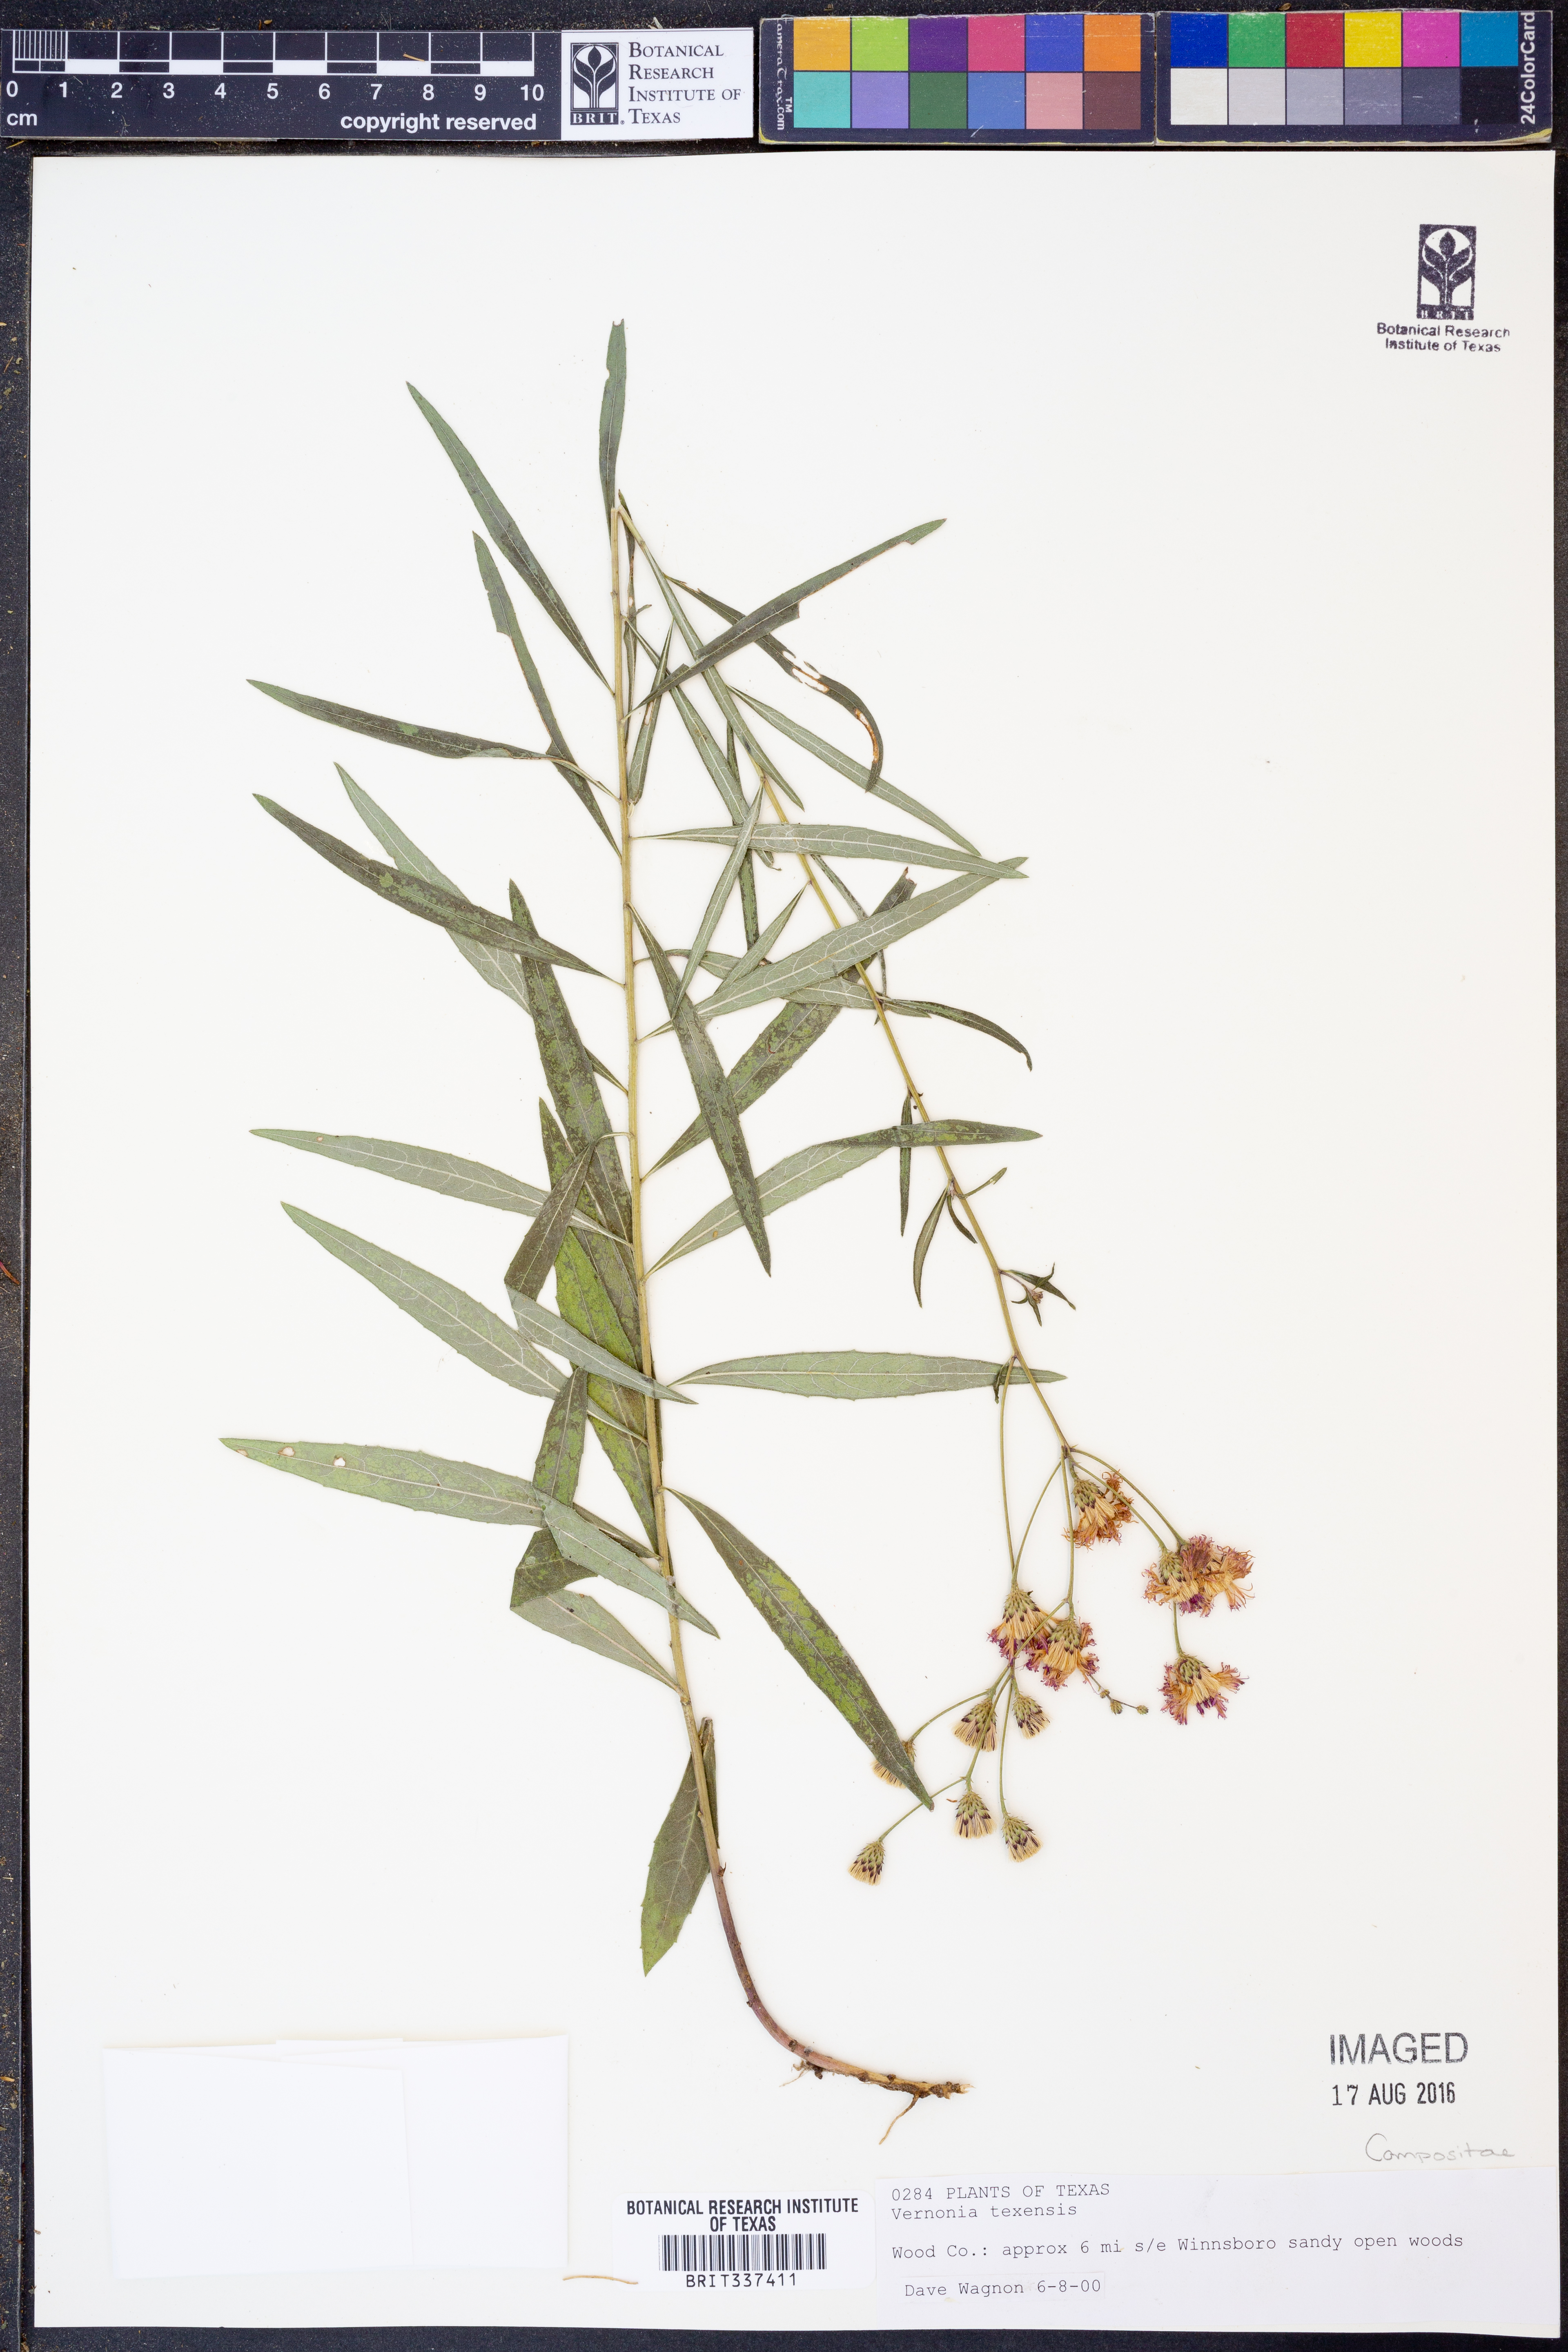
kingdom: Plantae
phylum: Tracheophyta
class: Magnoliopsida
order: Asterales
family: Asteraceae
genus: Vernonia
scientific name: Vernonia texana
